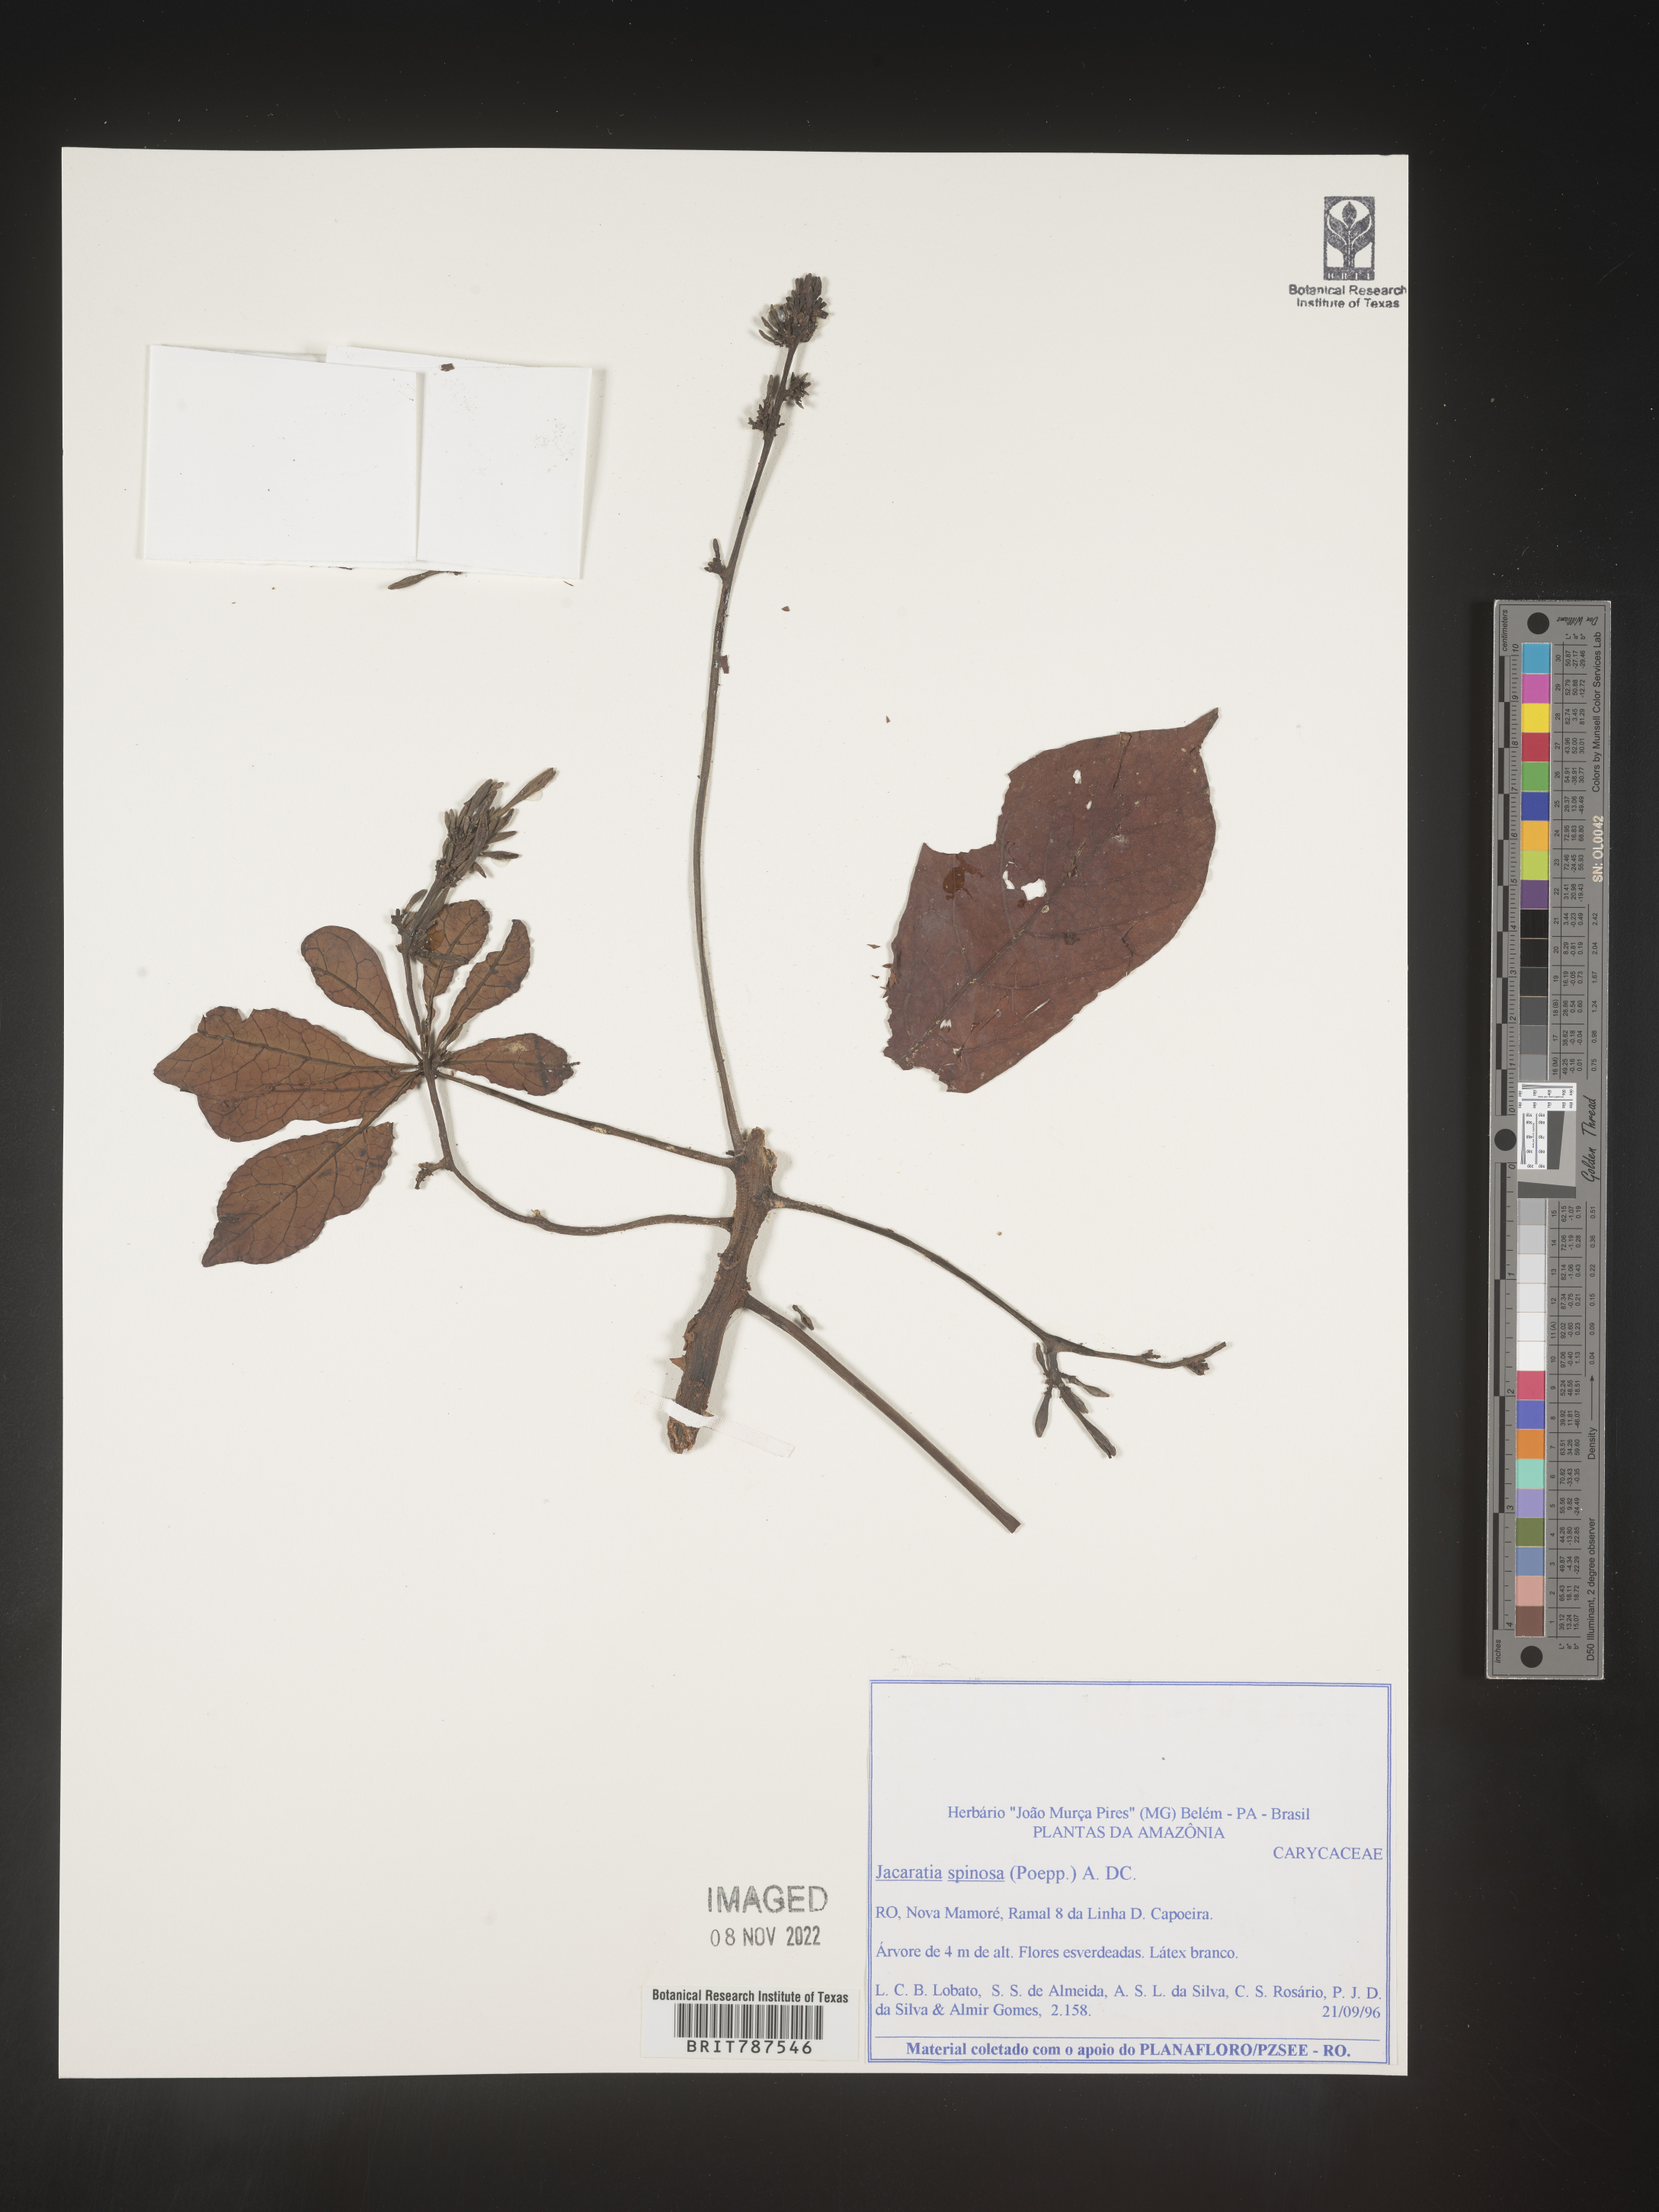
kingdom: Plantae
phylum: Tracheophyta
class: Magnoliopsida
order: Brassicales
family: Caricaceae
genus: Jacaratia
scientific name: Jacaratia
